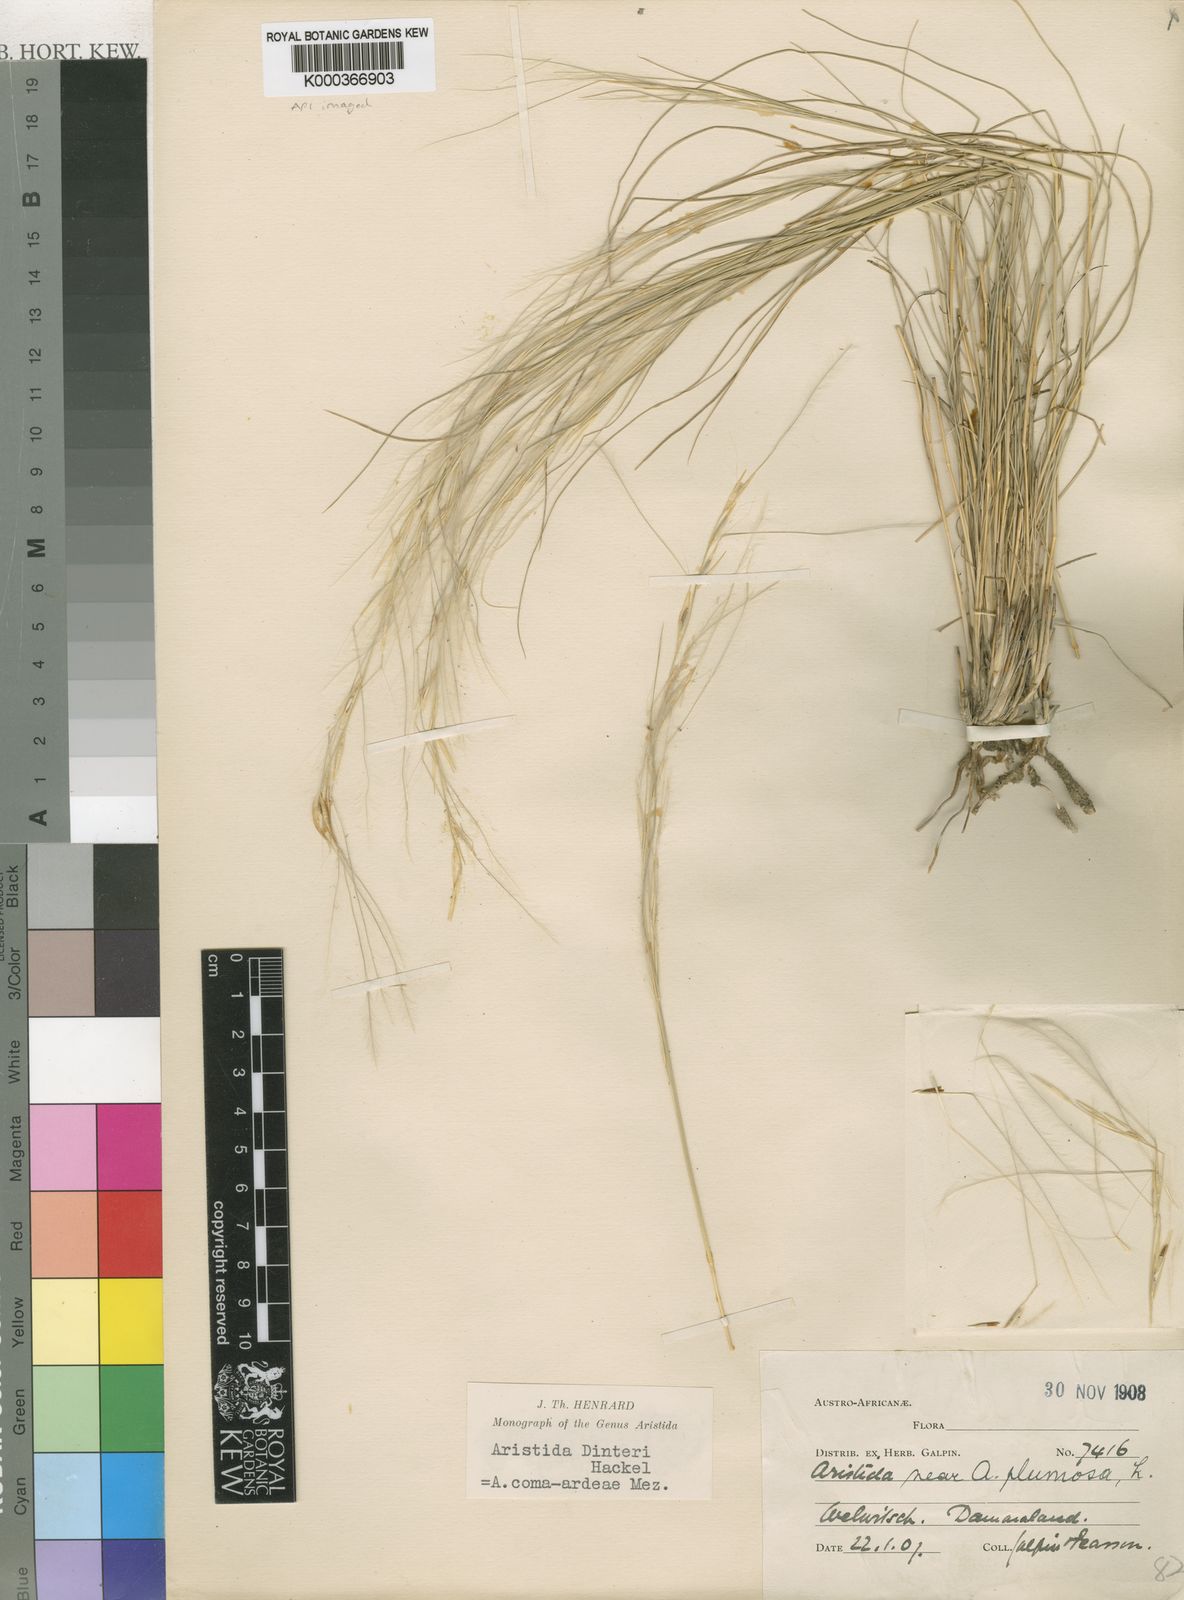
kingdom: Plantae
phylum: Tracheophyta
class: Liliopsida
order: Poales
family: Poaceae
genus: Stipagrostis
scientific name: Stipagrostis dinteri
